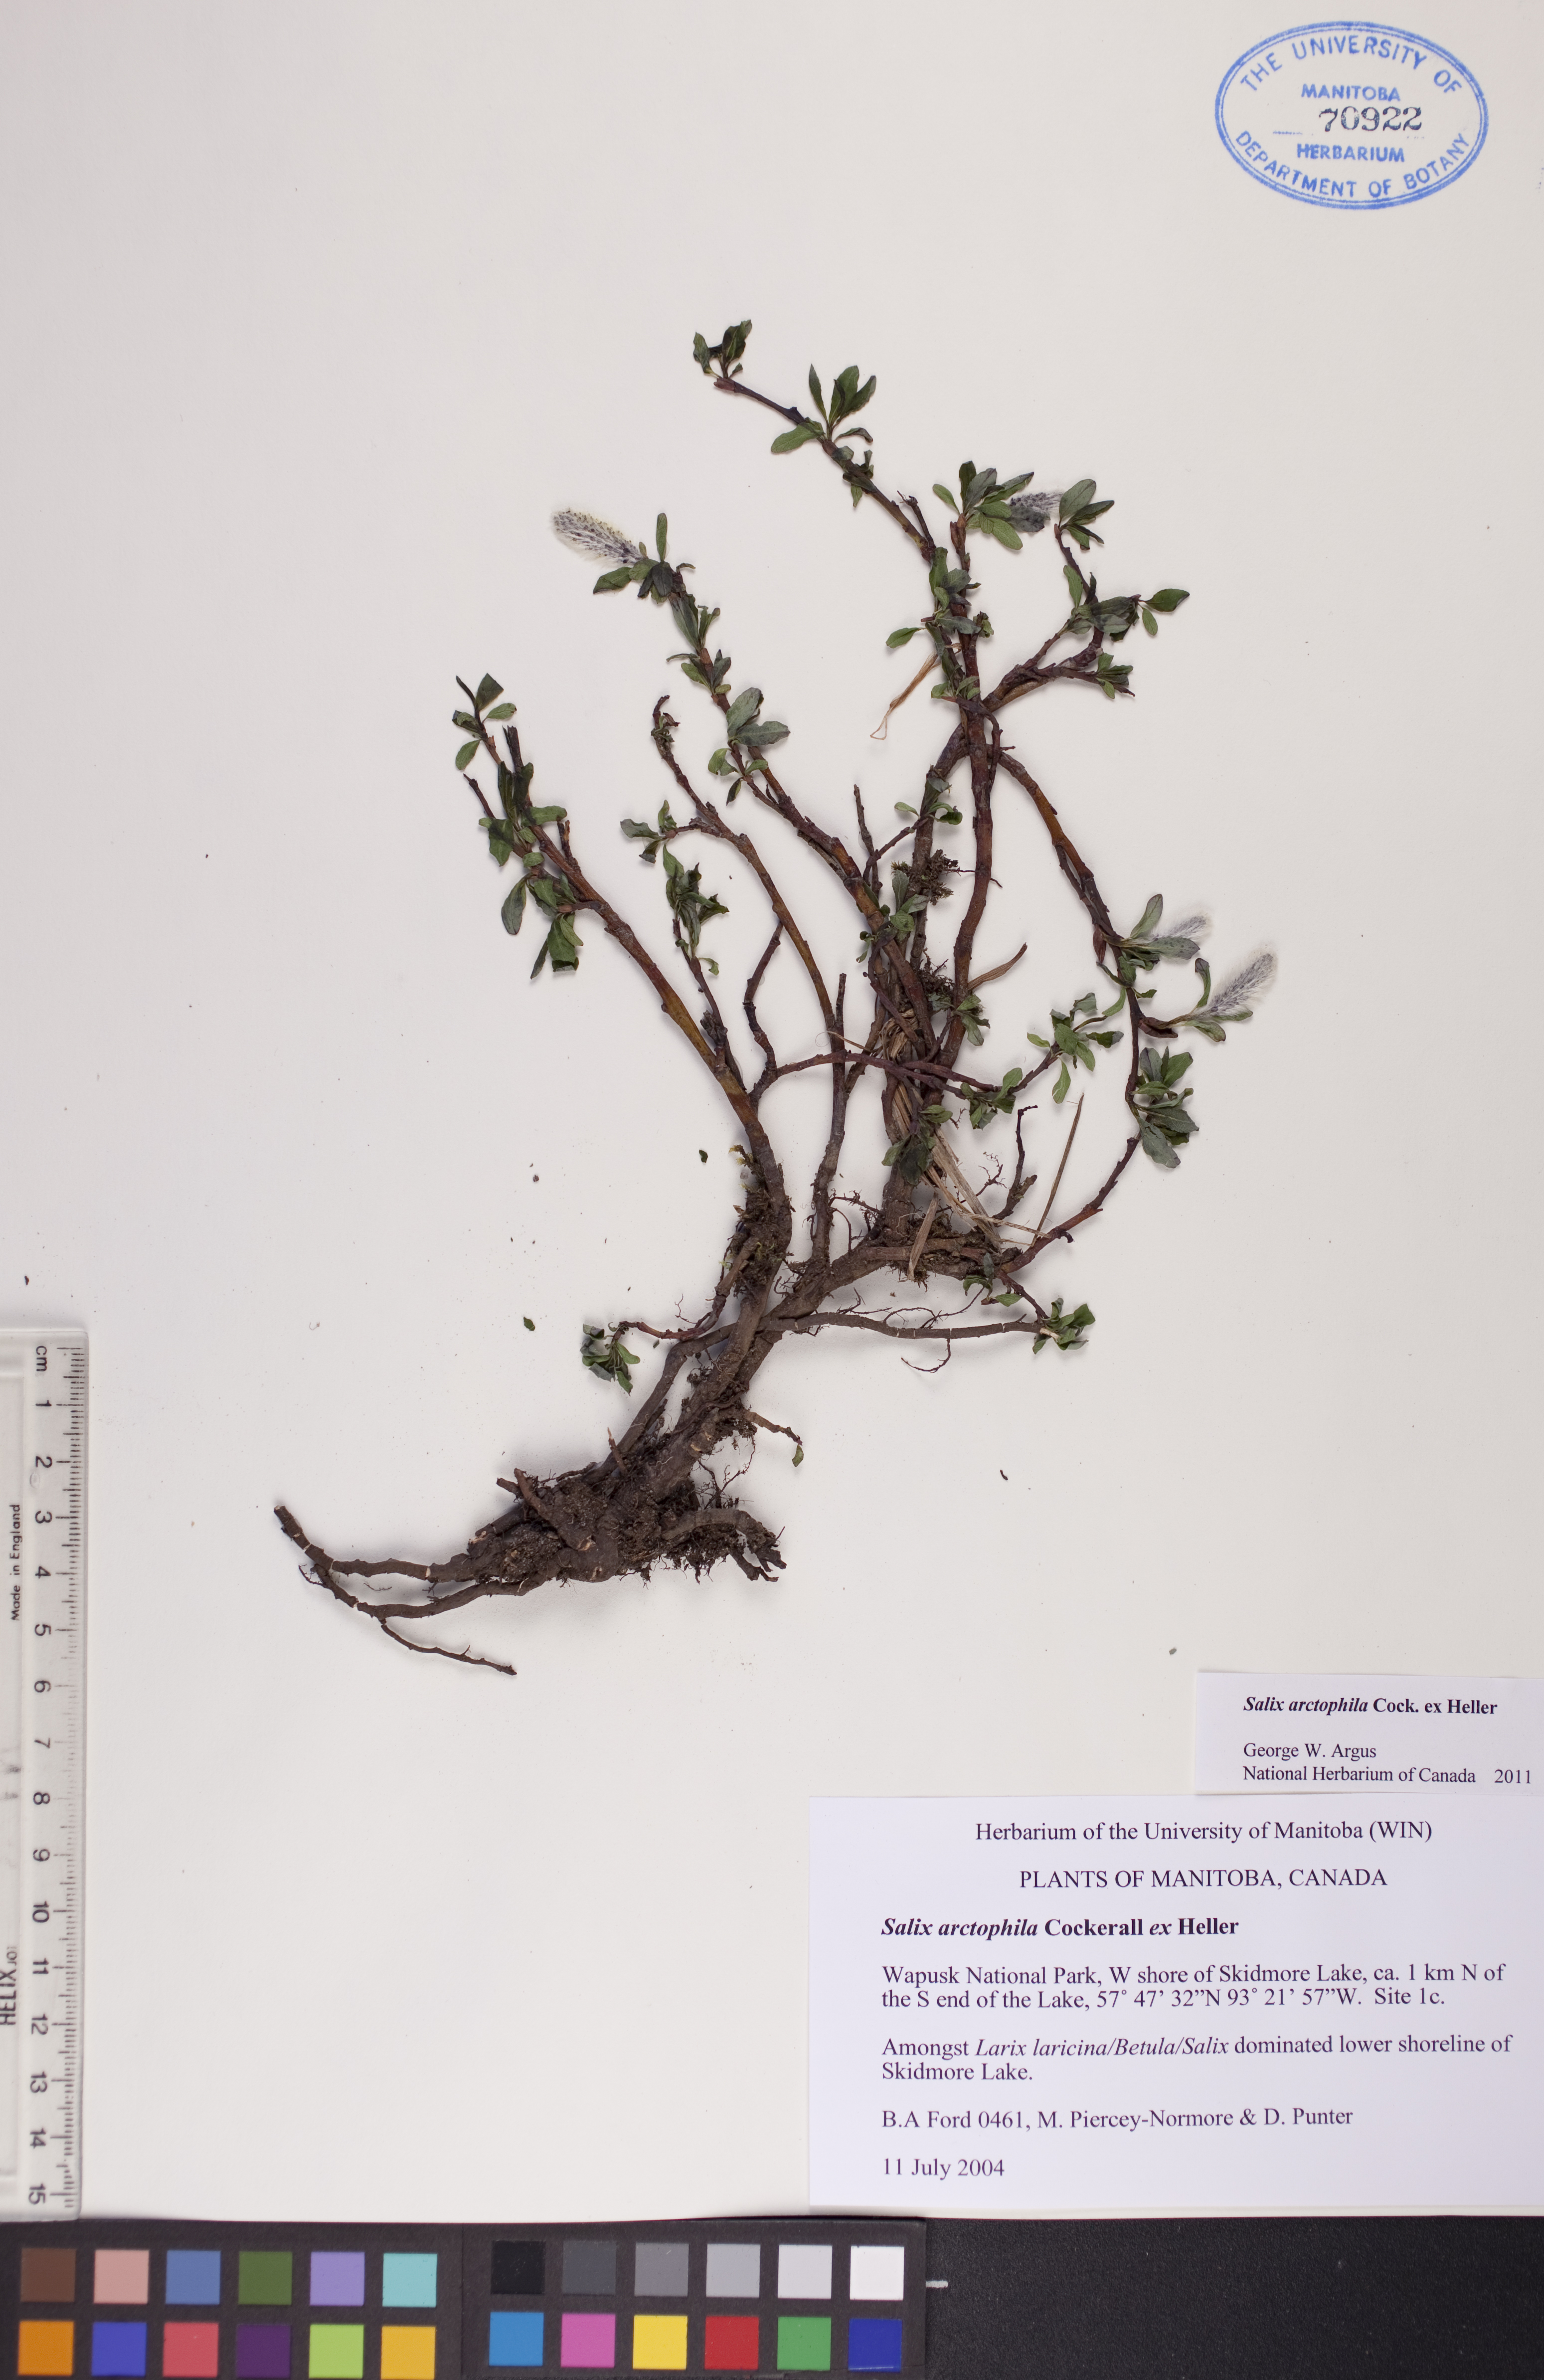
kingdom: Plantae
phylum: Tracheophyta
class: Magnoliopsida
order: Malpighiales
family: Salicaceae
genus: Salix
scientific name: Salix arctophila
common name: Greenland willow
